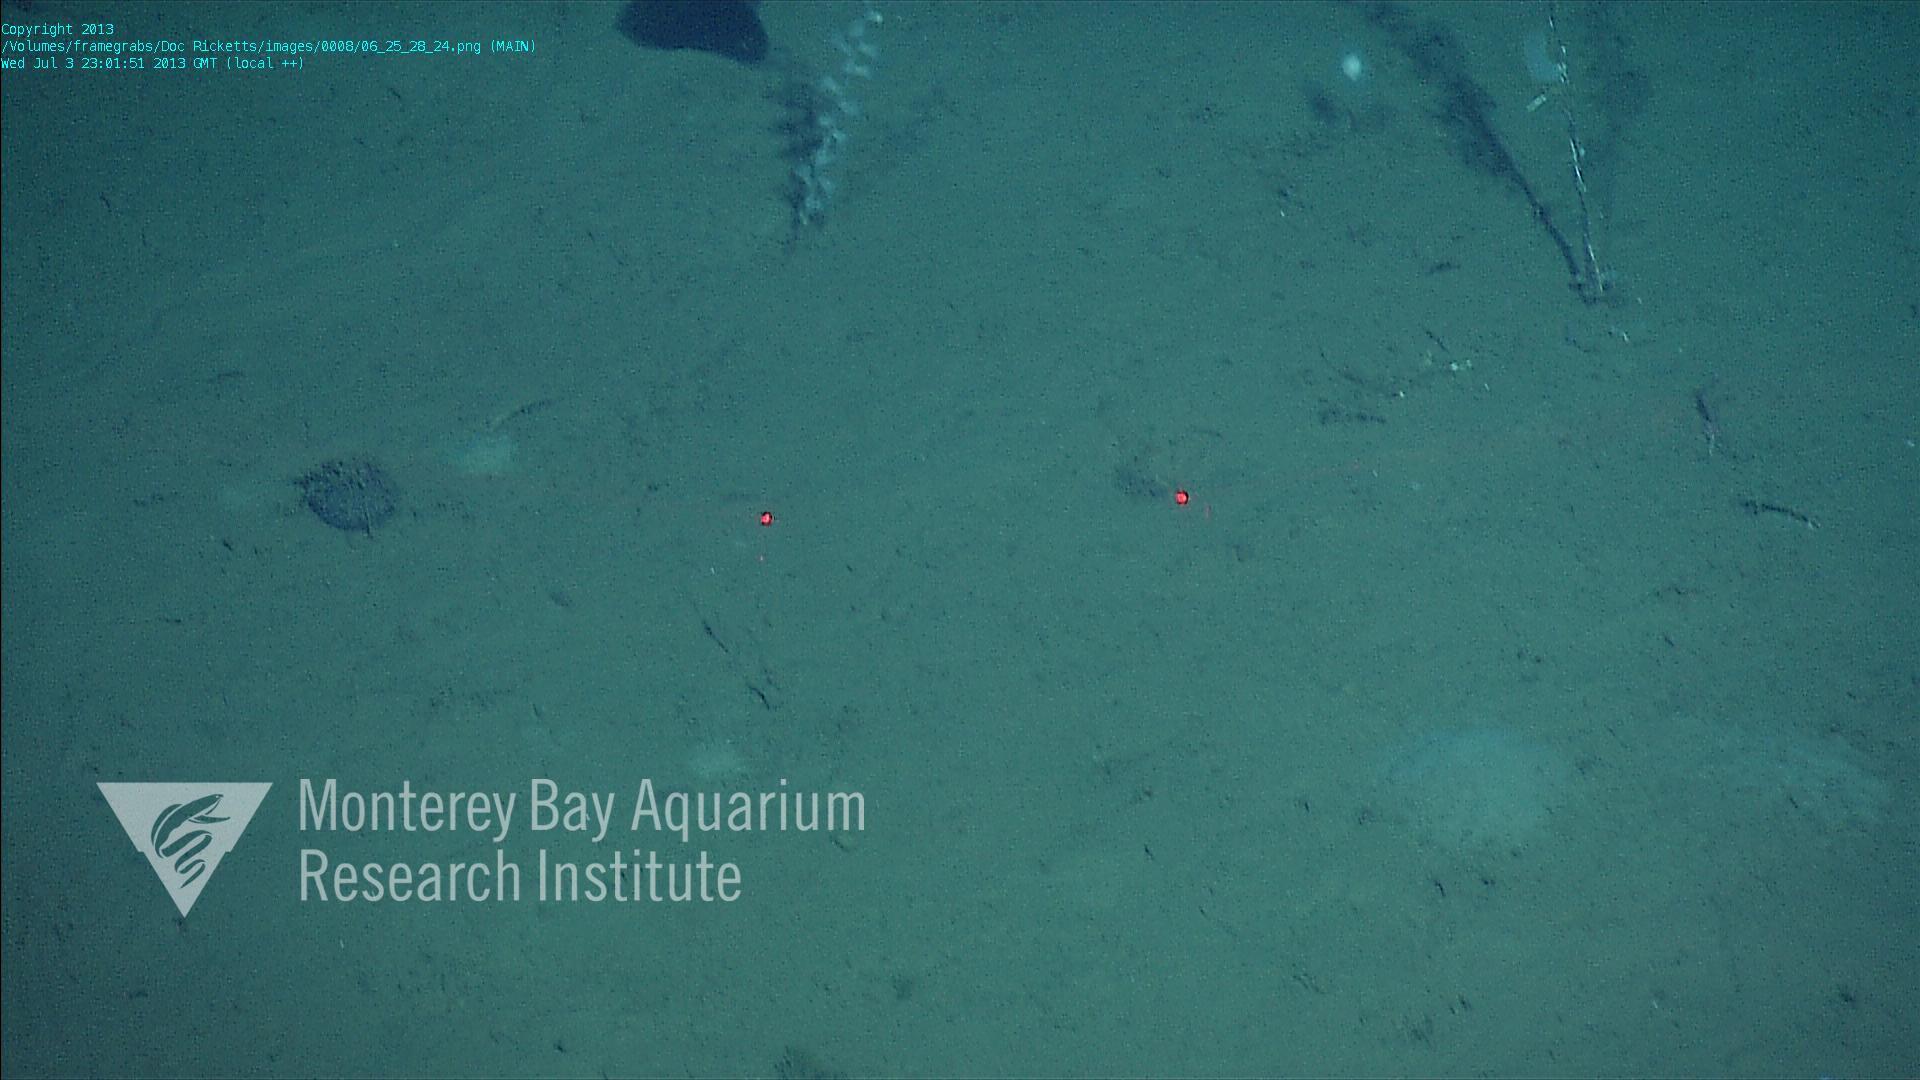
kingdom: Animalia
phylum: Porifera
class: Demospongiae
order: Poecilosclerida
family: Cladorhizidae
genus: Cladorhiza
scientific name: Cladorhiza
